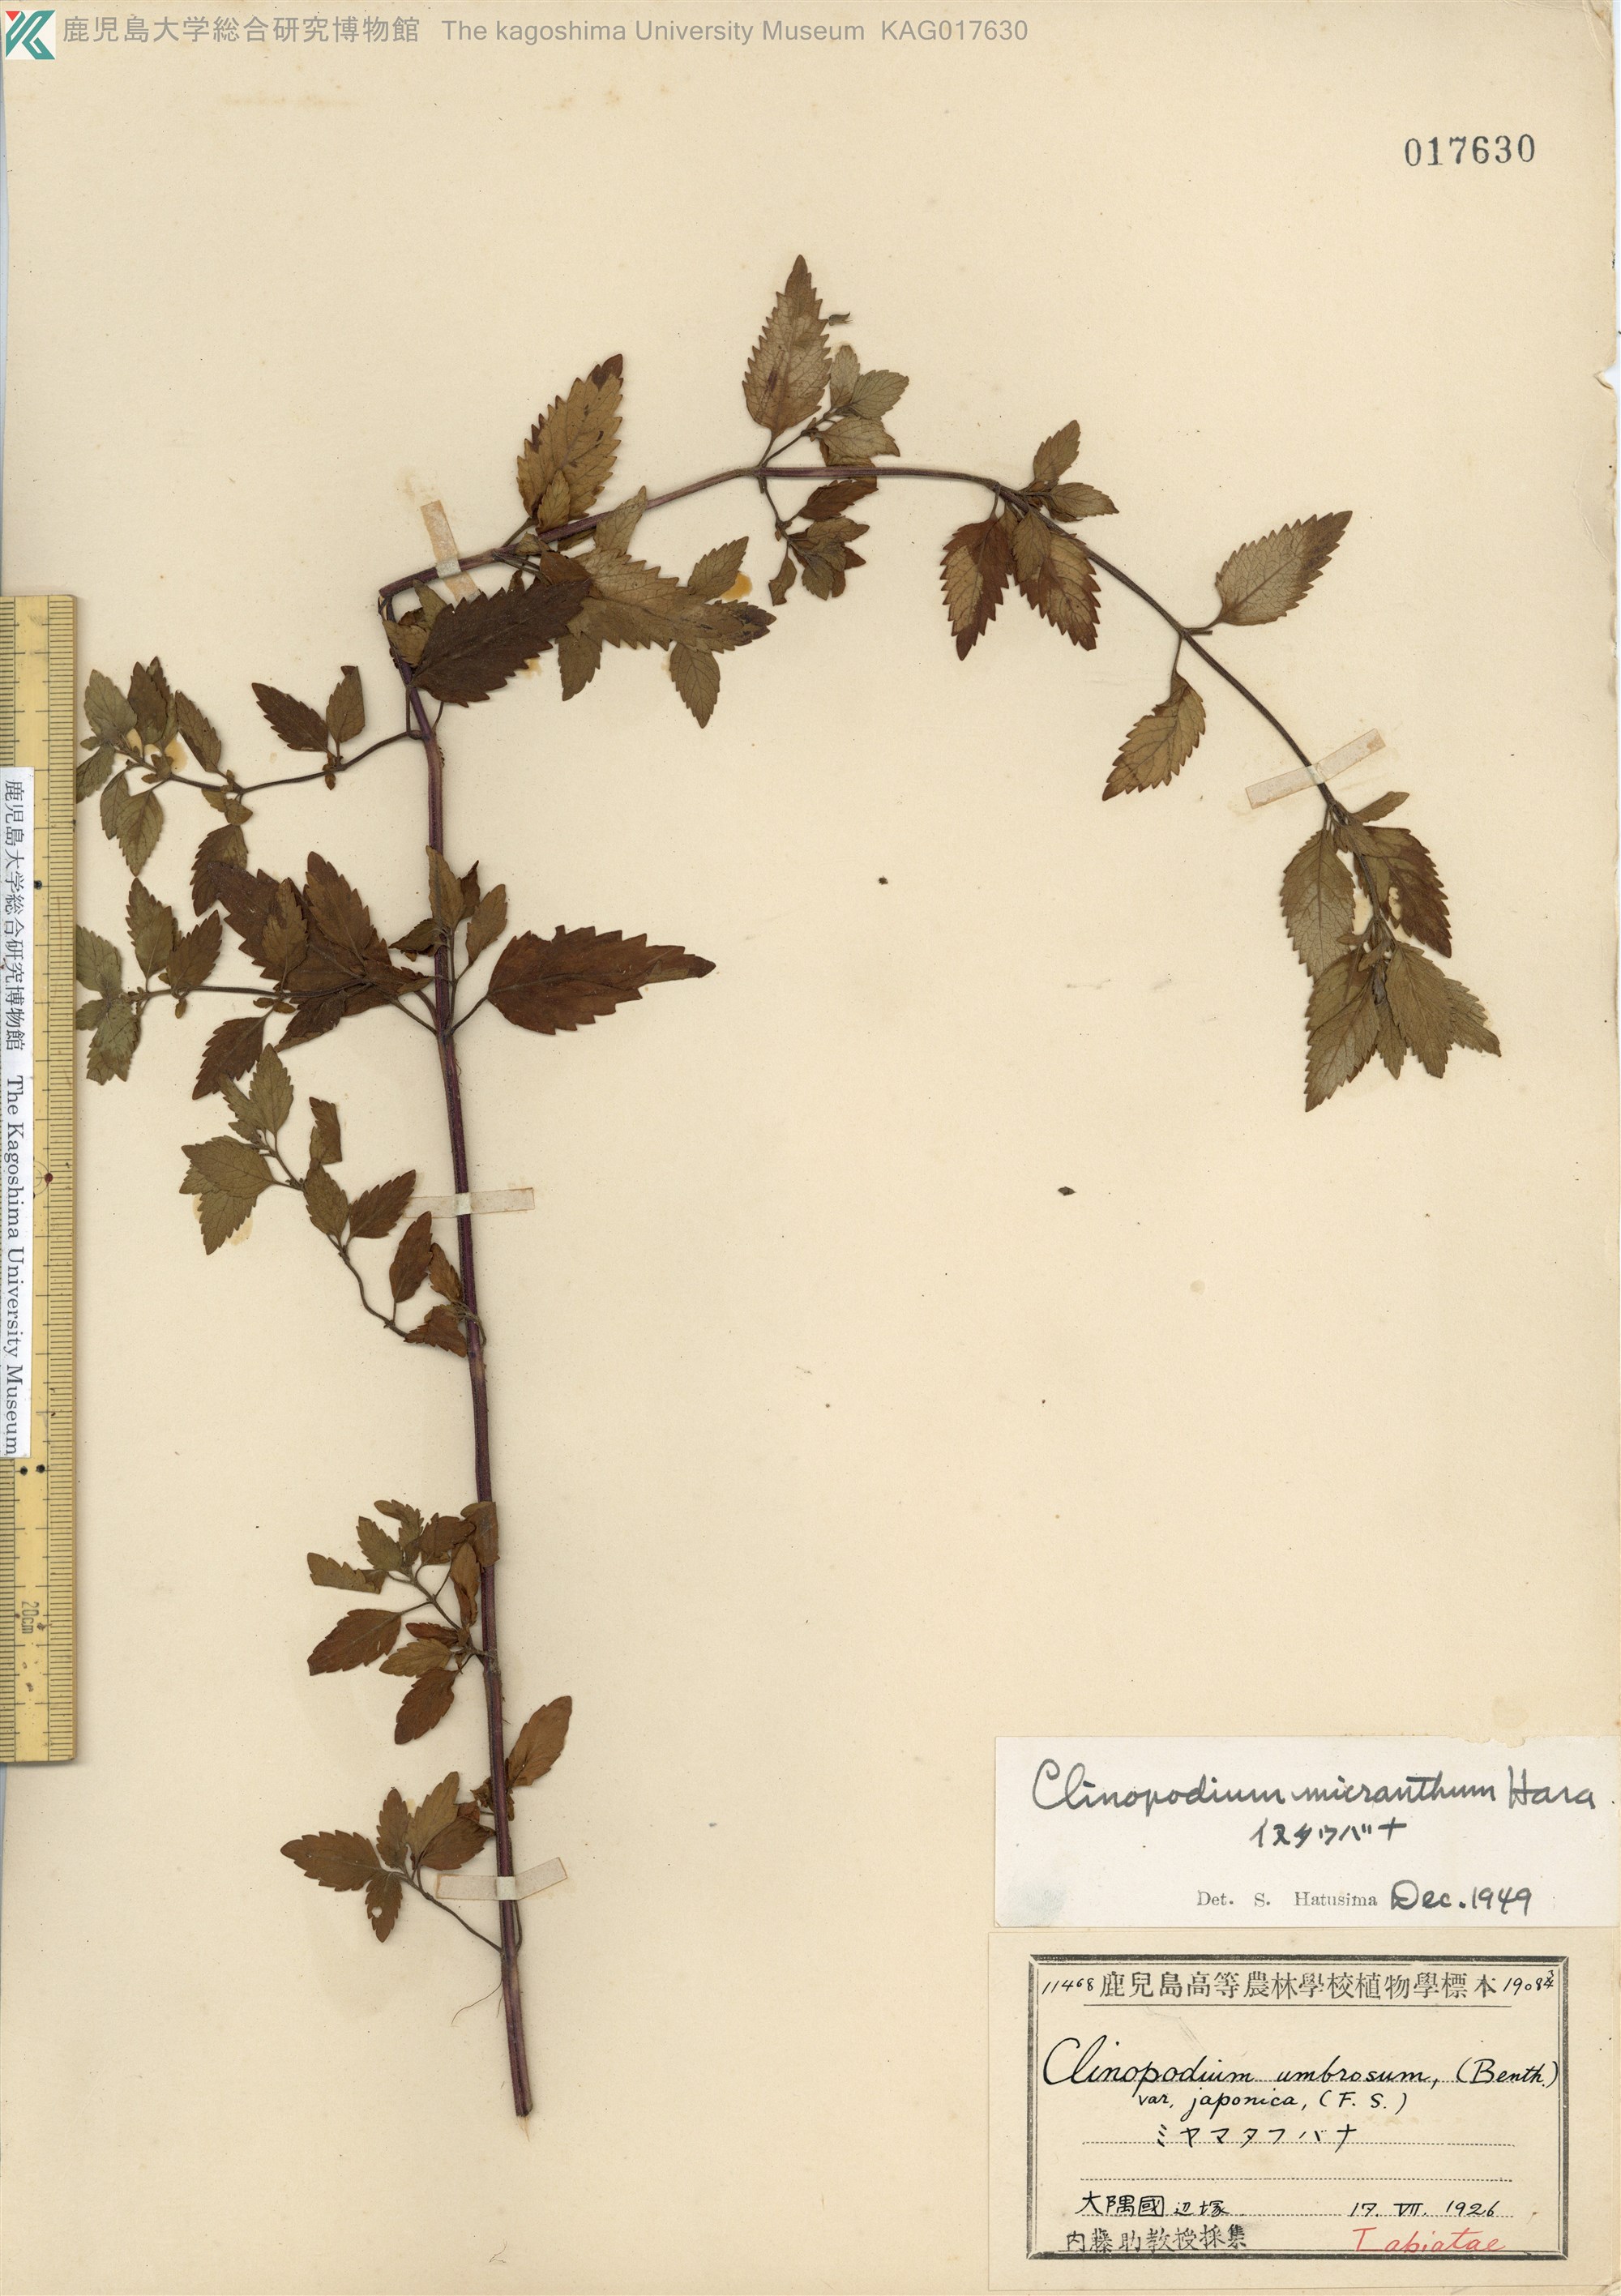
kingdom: Plantae
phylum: Tracheophyta
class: Magnoliopsida
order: Lamiales
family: Lamiaceae
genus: Clinopodium
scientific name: Clinopodium micranthum
